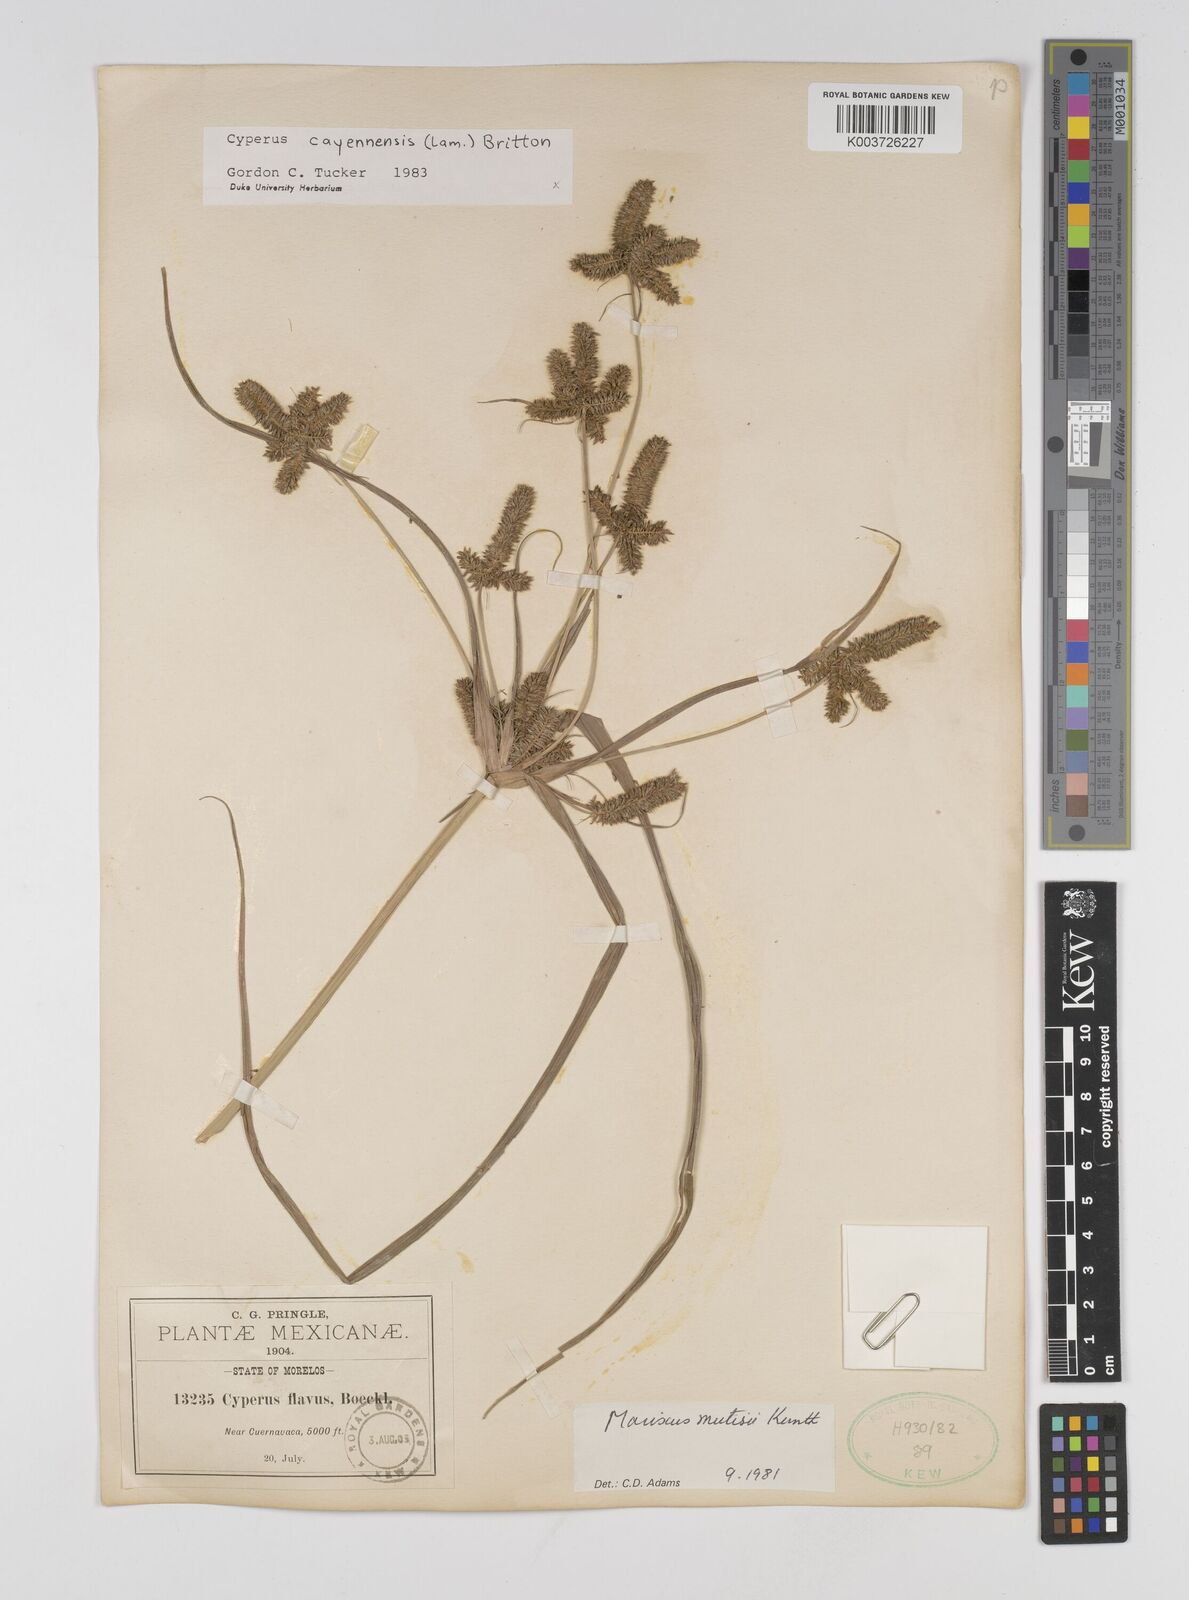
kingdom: Plantae
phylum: Tracheophyta
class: Liliopsida
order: Poales
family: Cyperaceae
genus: Cyperus
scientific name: Cyperus mutisii
